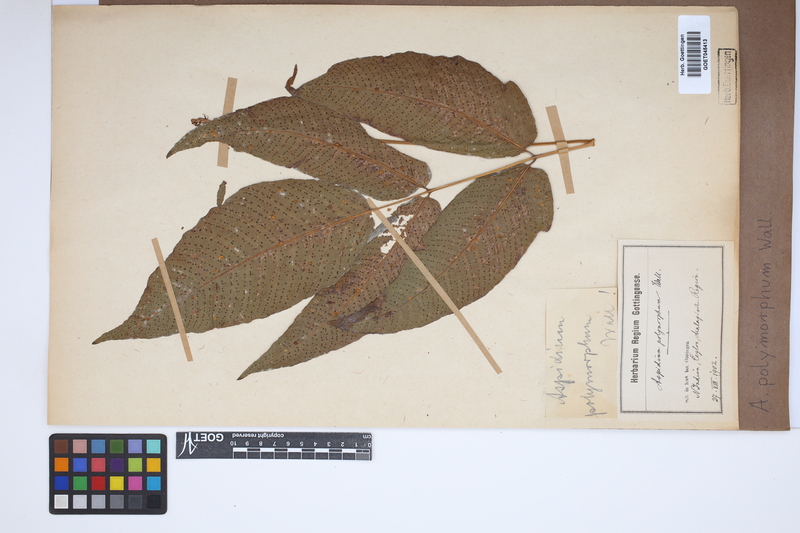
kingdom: Plantae
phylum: Tracheophyta
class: Polypodiopsida
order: Polypodiales
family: Tectariaceae
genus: Tectaria
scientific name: Tectaria polymorpha
